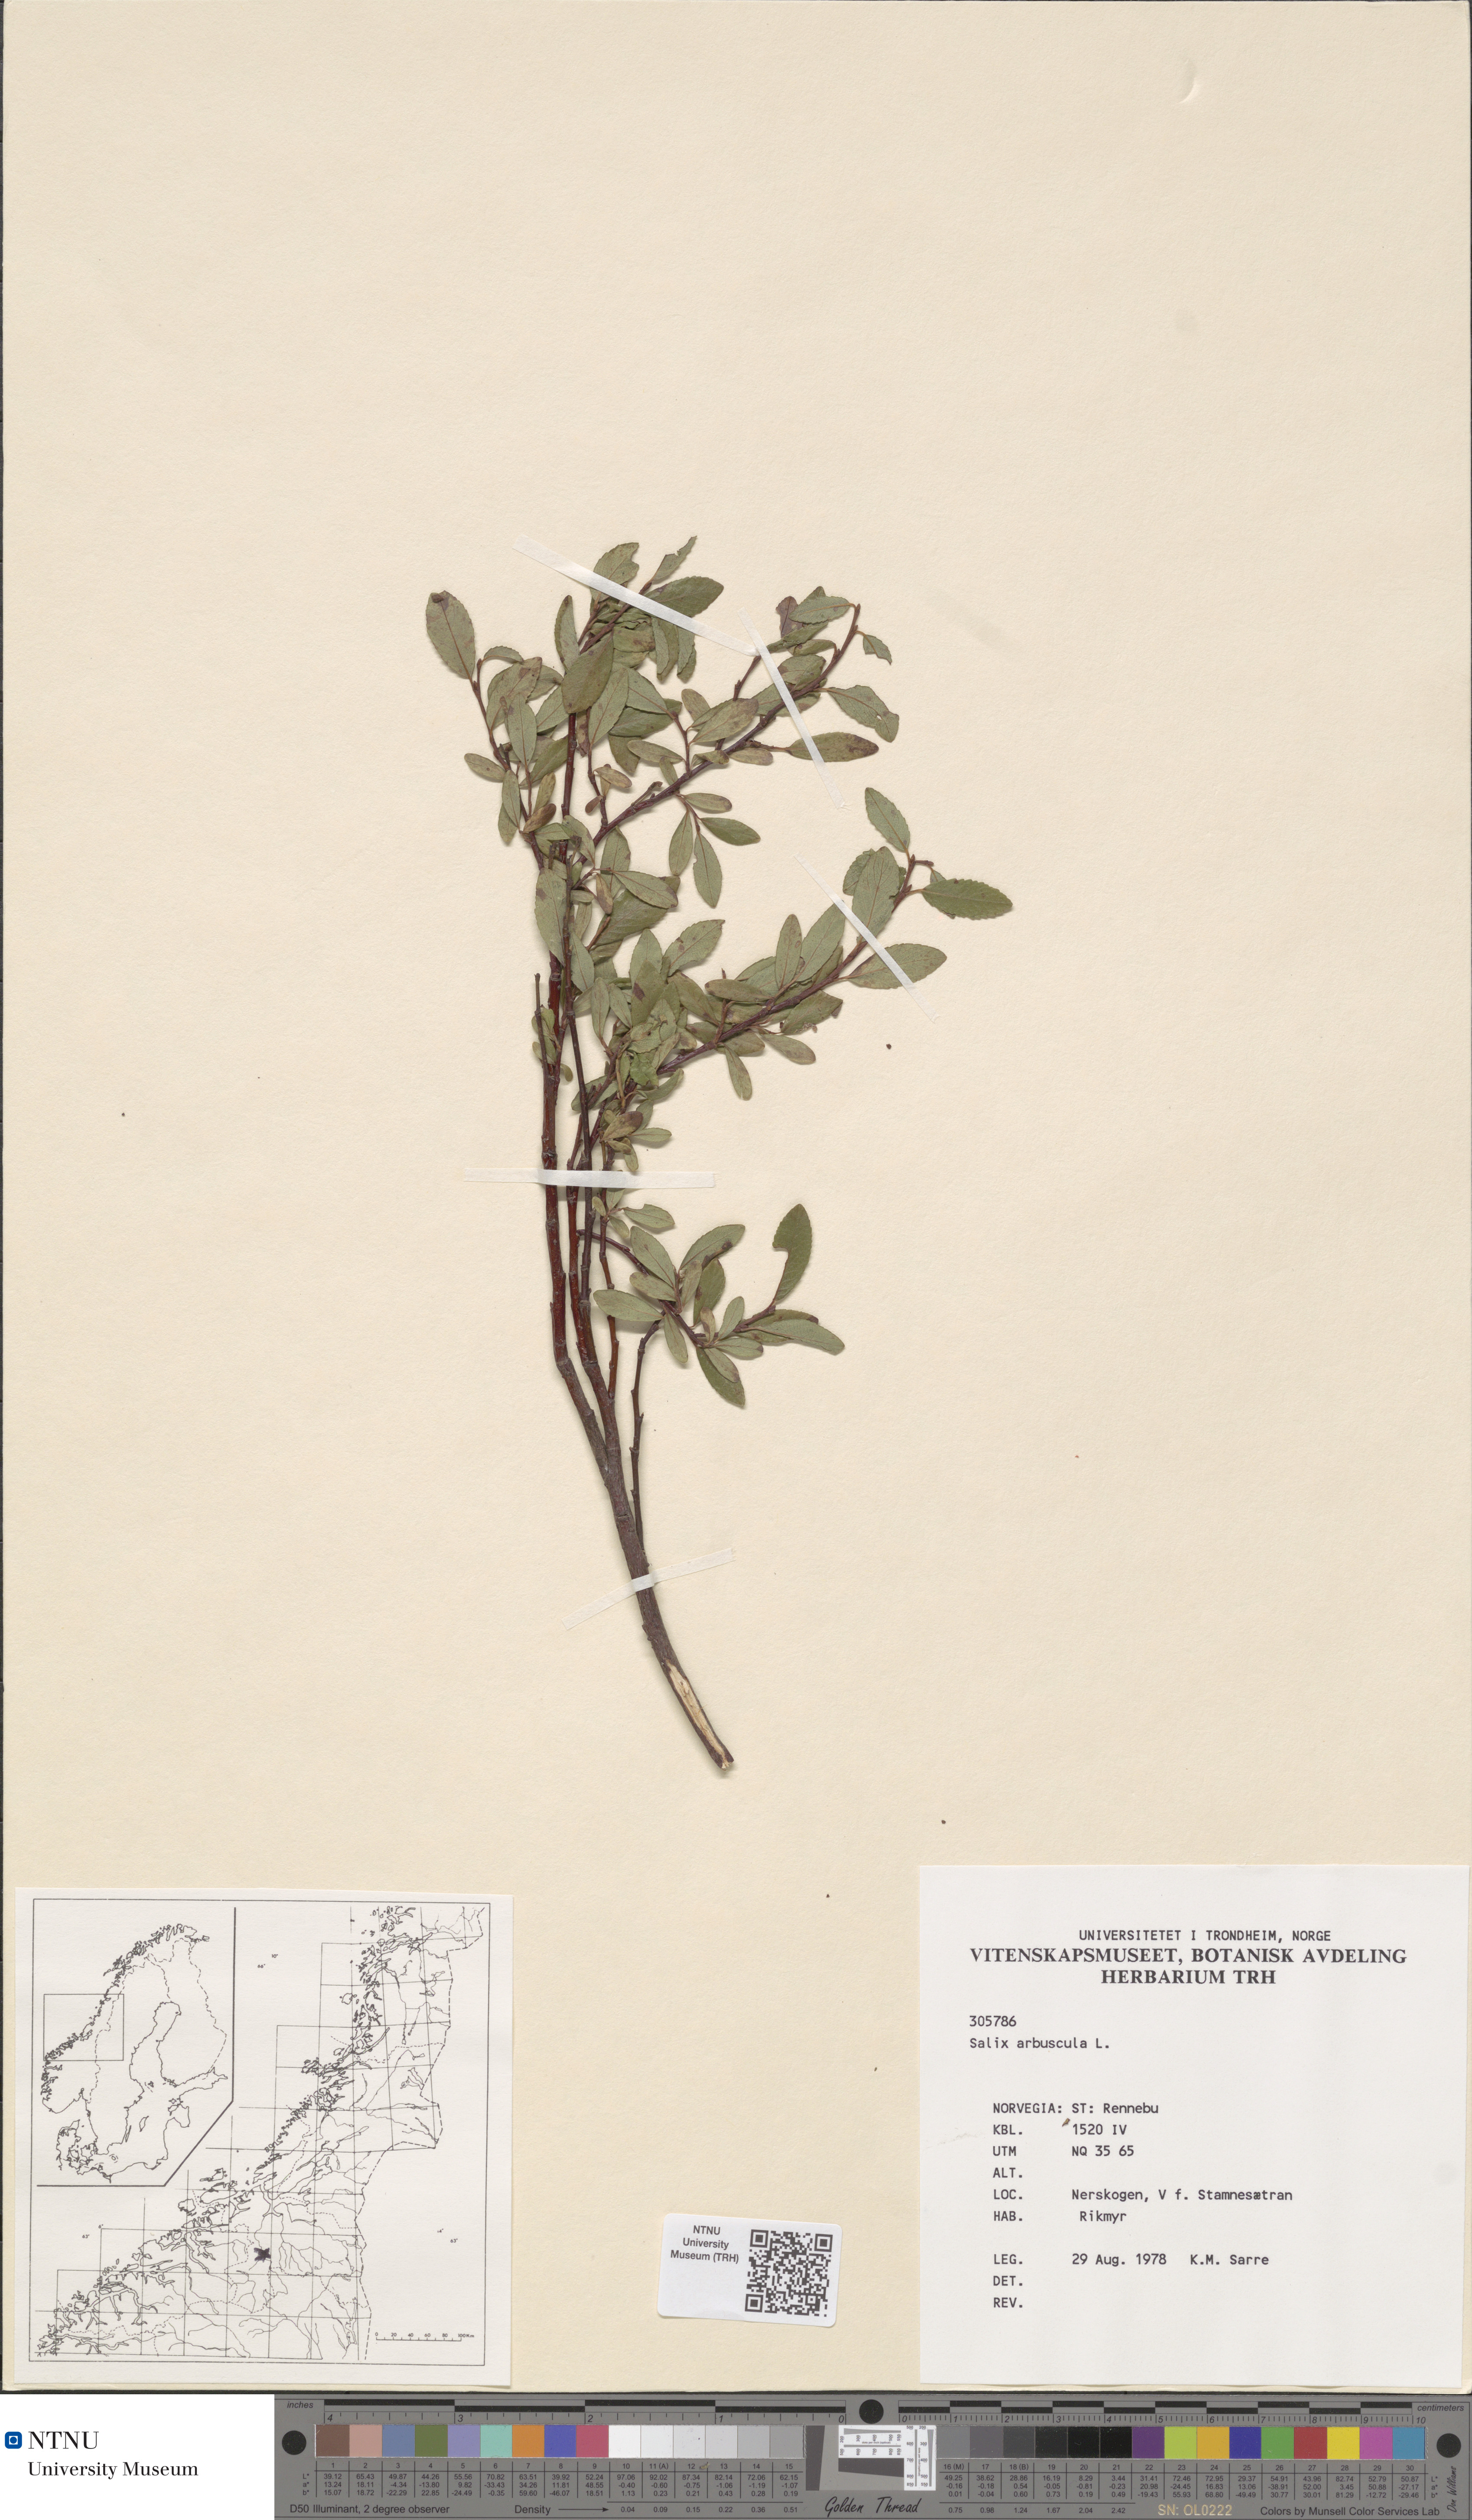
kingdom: Plantae
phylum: Tracheophyta
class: Magnoliopsida
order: Malpighiales
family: Salicaceae
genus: Salix
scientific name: Salix arbuscula
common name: Mountain willow
